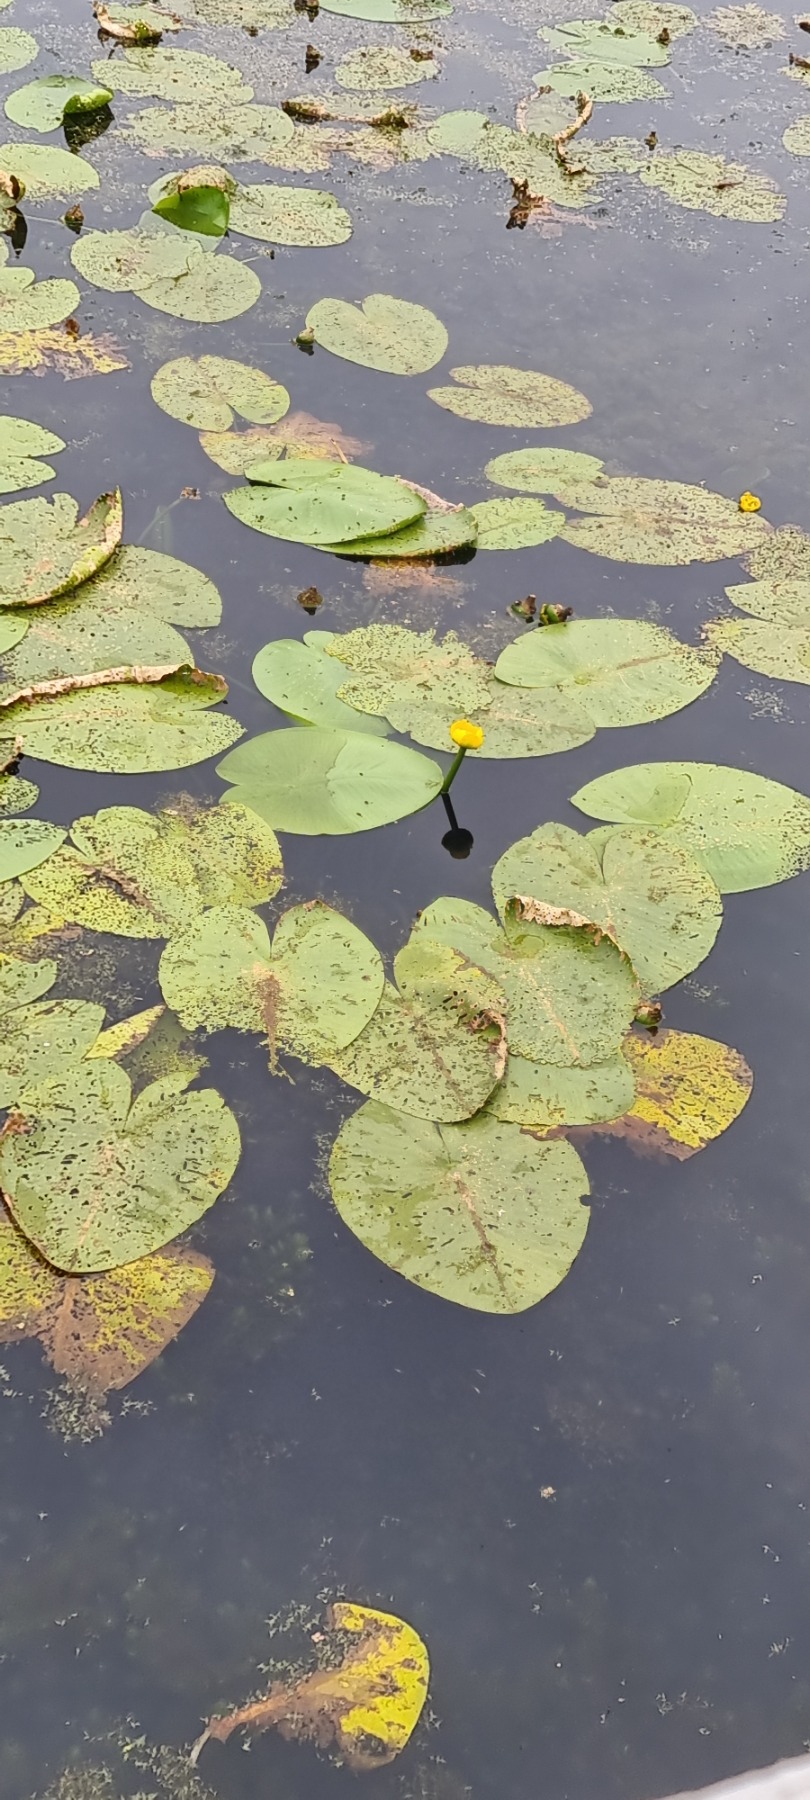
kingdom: Plantae
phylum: Tracheophyta
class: Magnoliopsida
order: Nymphaeales
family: Nymphaeaceae
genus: Nuphar
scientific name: Nuphar lutea
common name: Gul åkande
